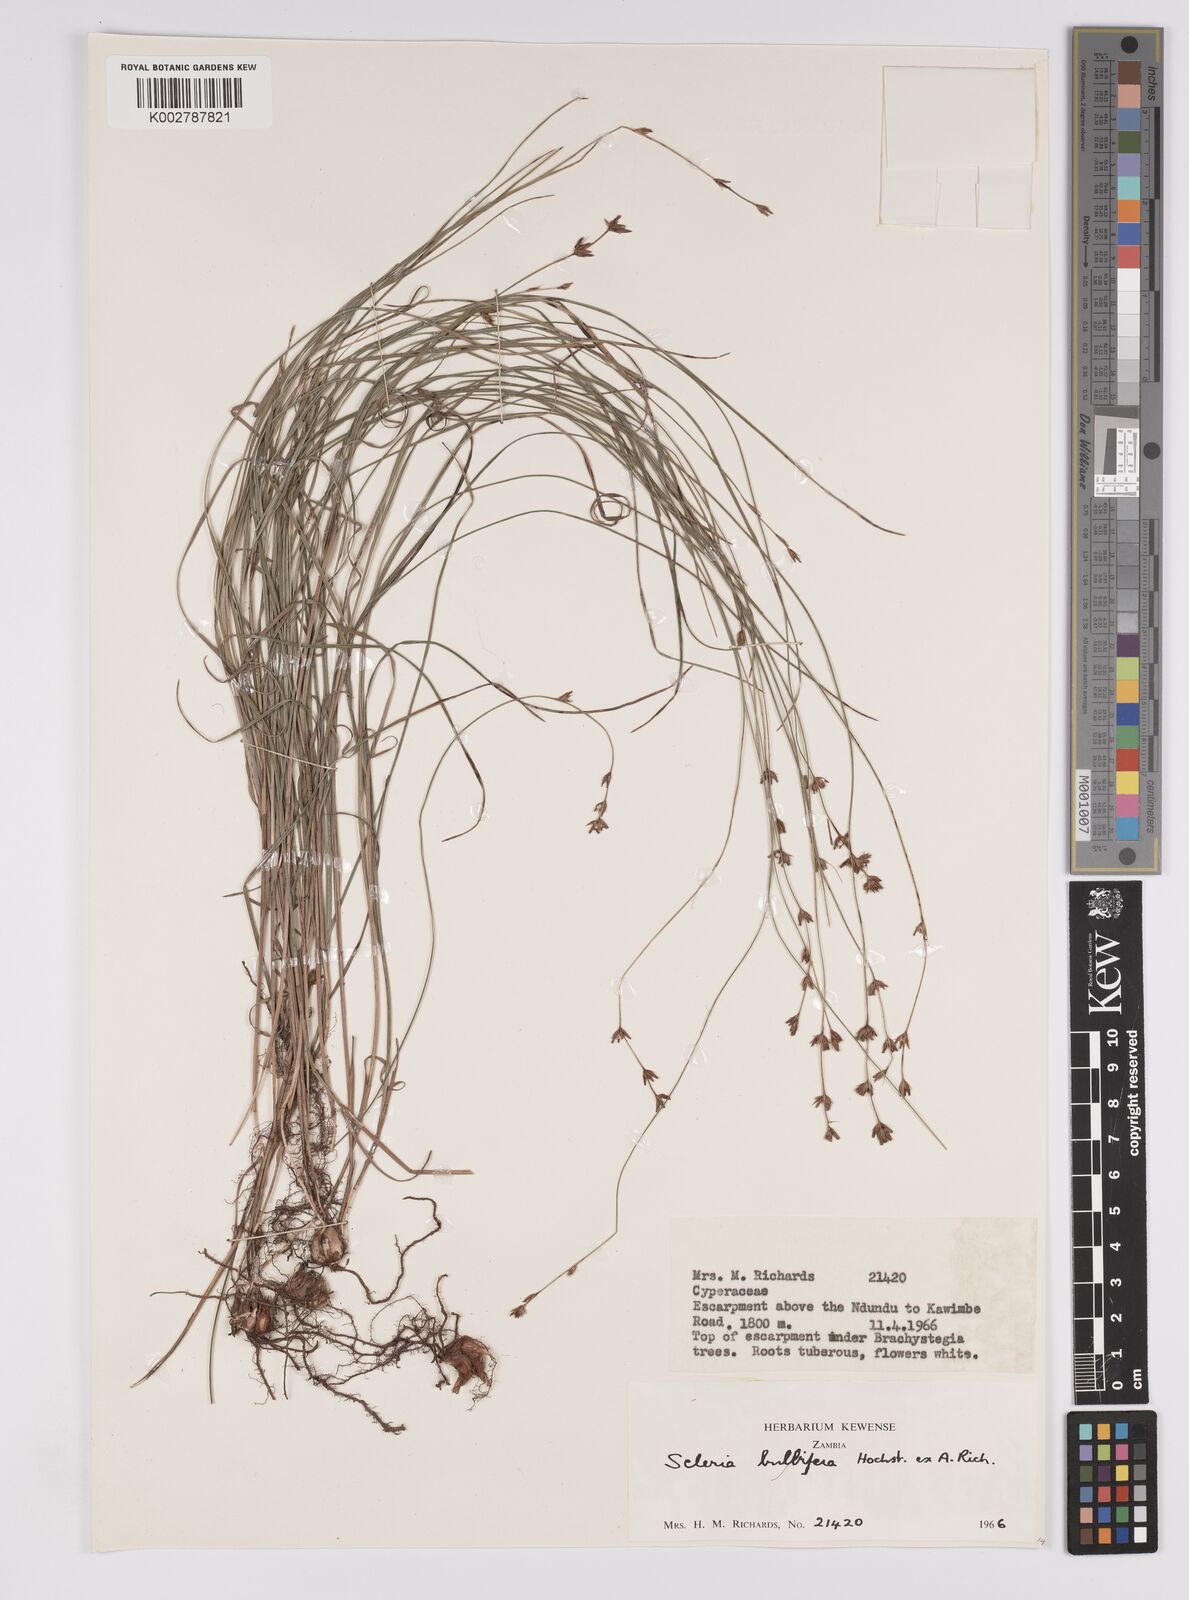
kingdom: Plantae
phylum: Tracheophyta
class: Liliopsida
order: Poales
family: Cyperaceae
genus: Scleria
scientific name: Scleria bulbifera
